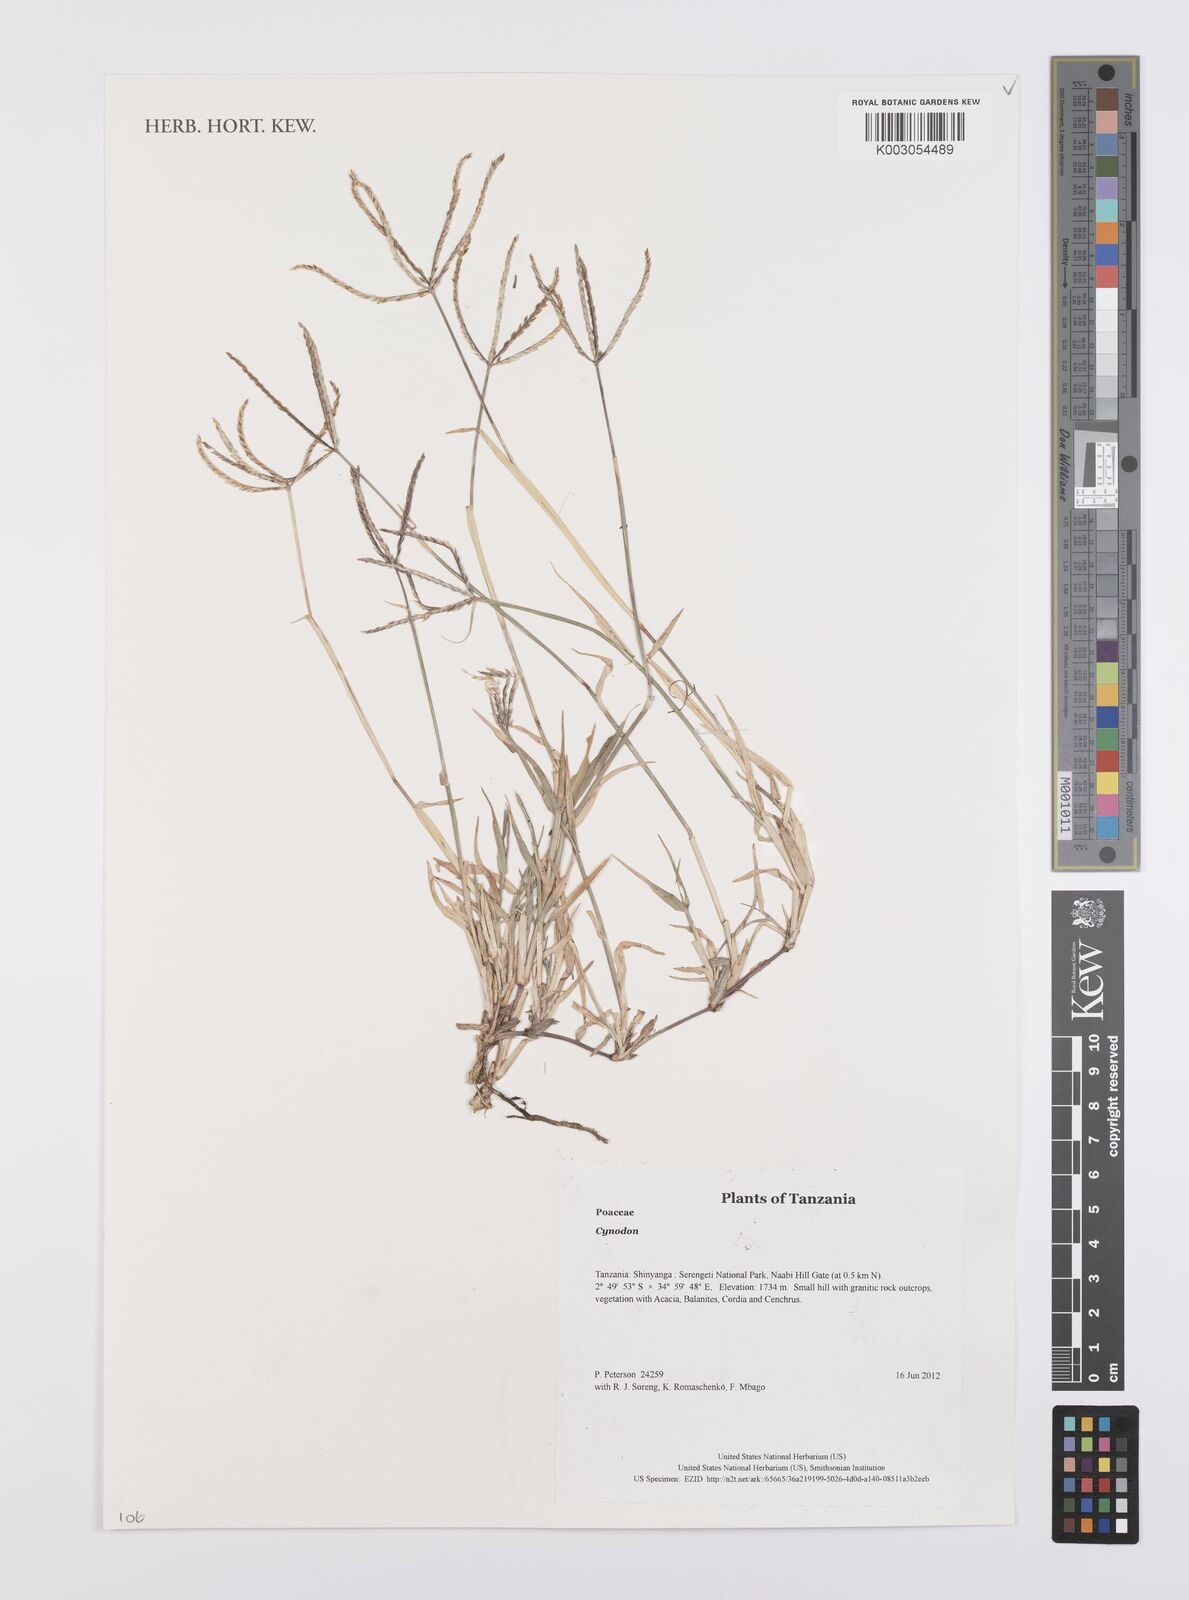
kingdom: Plantae
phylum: Tracheophyta
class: Liliopsida
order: Poales
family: Poaceae
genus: Cynodon
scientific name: Cynodon
